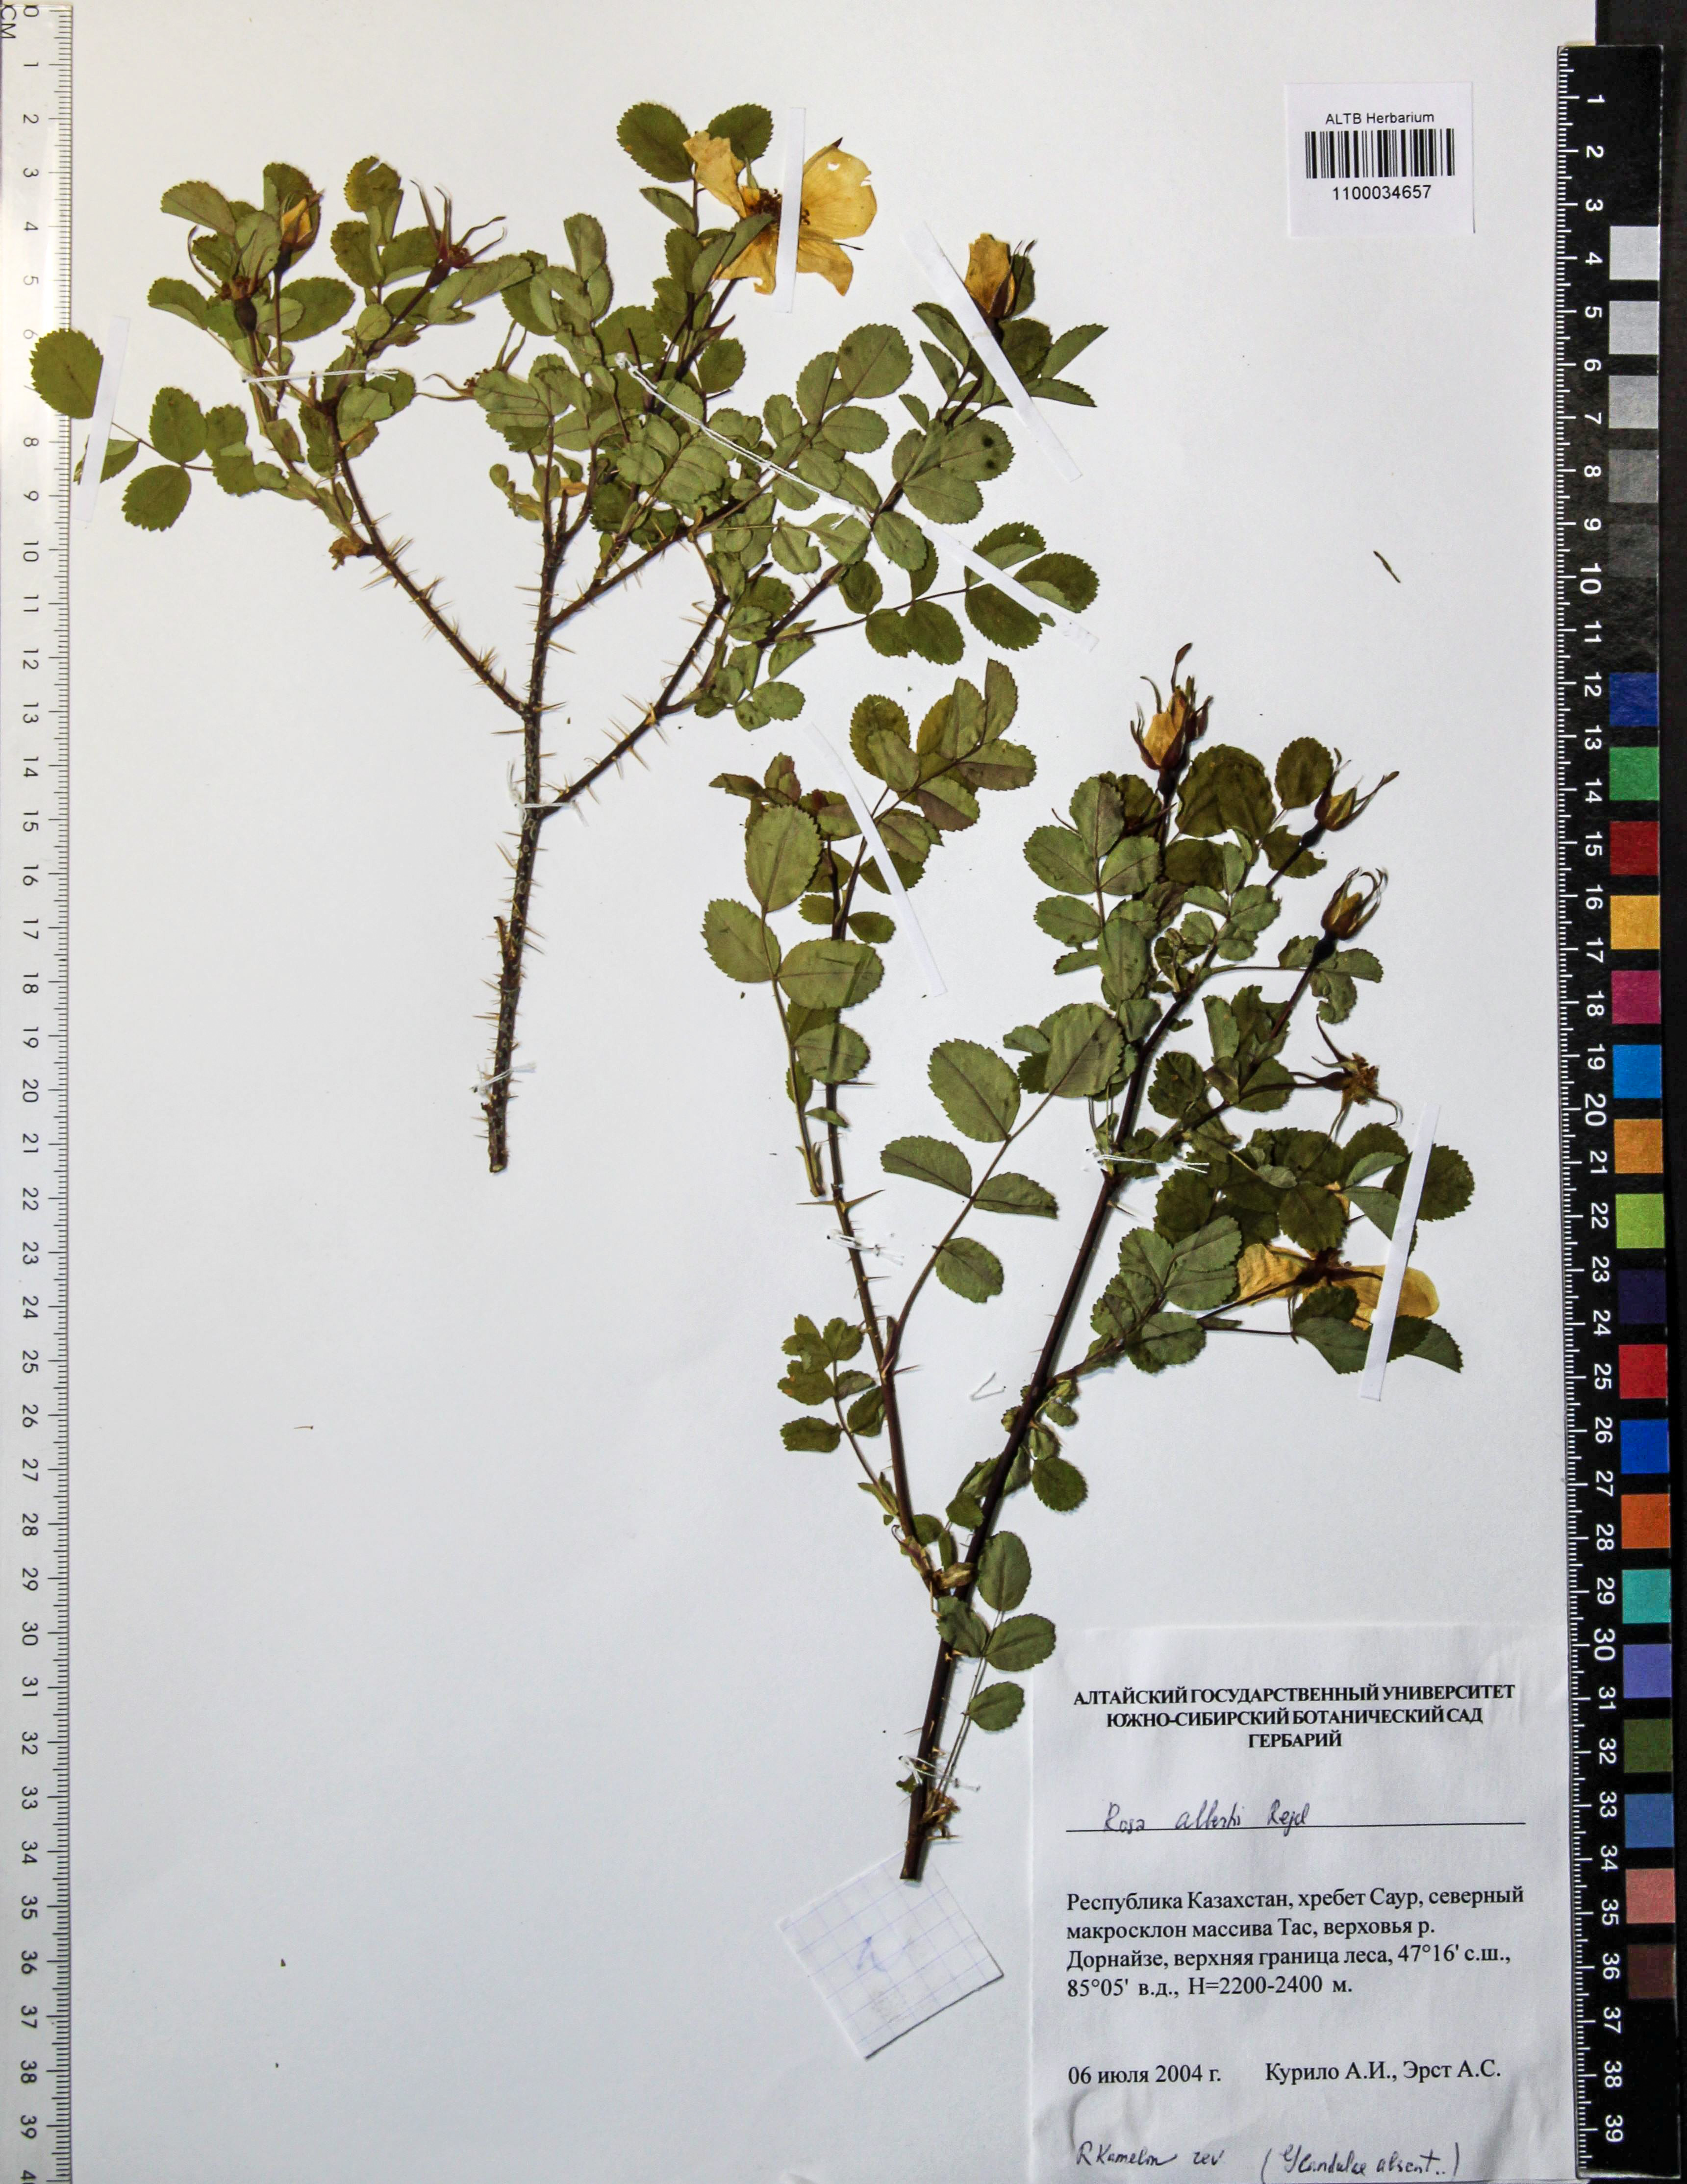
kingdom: Plantae
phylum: Tracheophyta
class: Magnoliopsida
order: Rosales
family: Rosaceae
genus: Rosa
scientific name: Rosa alberti
